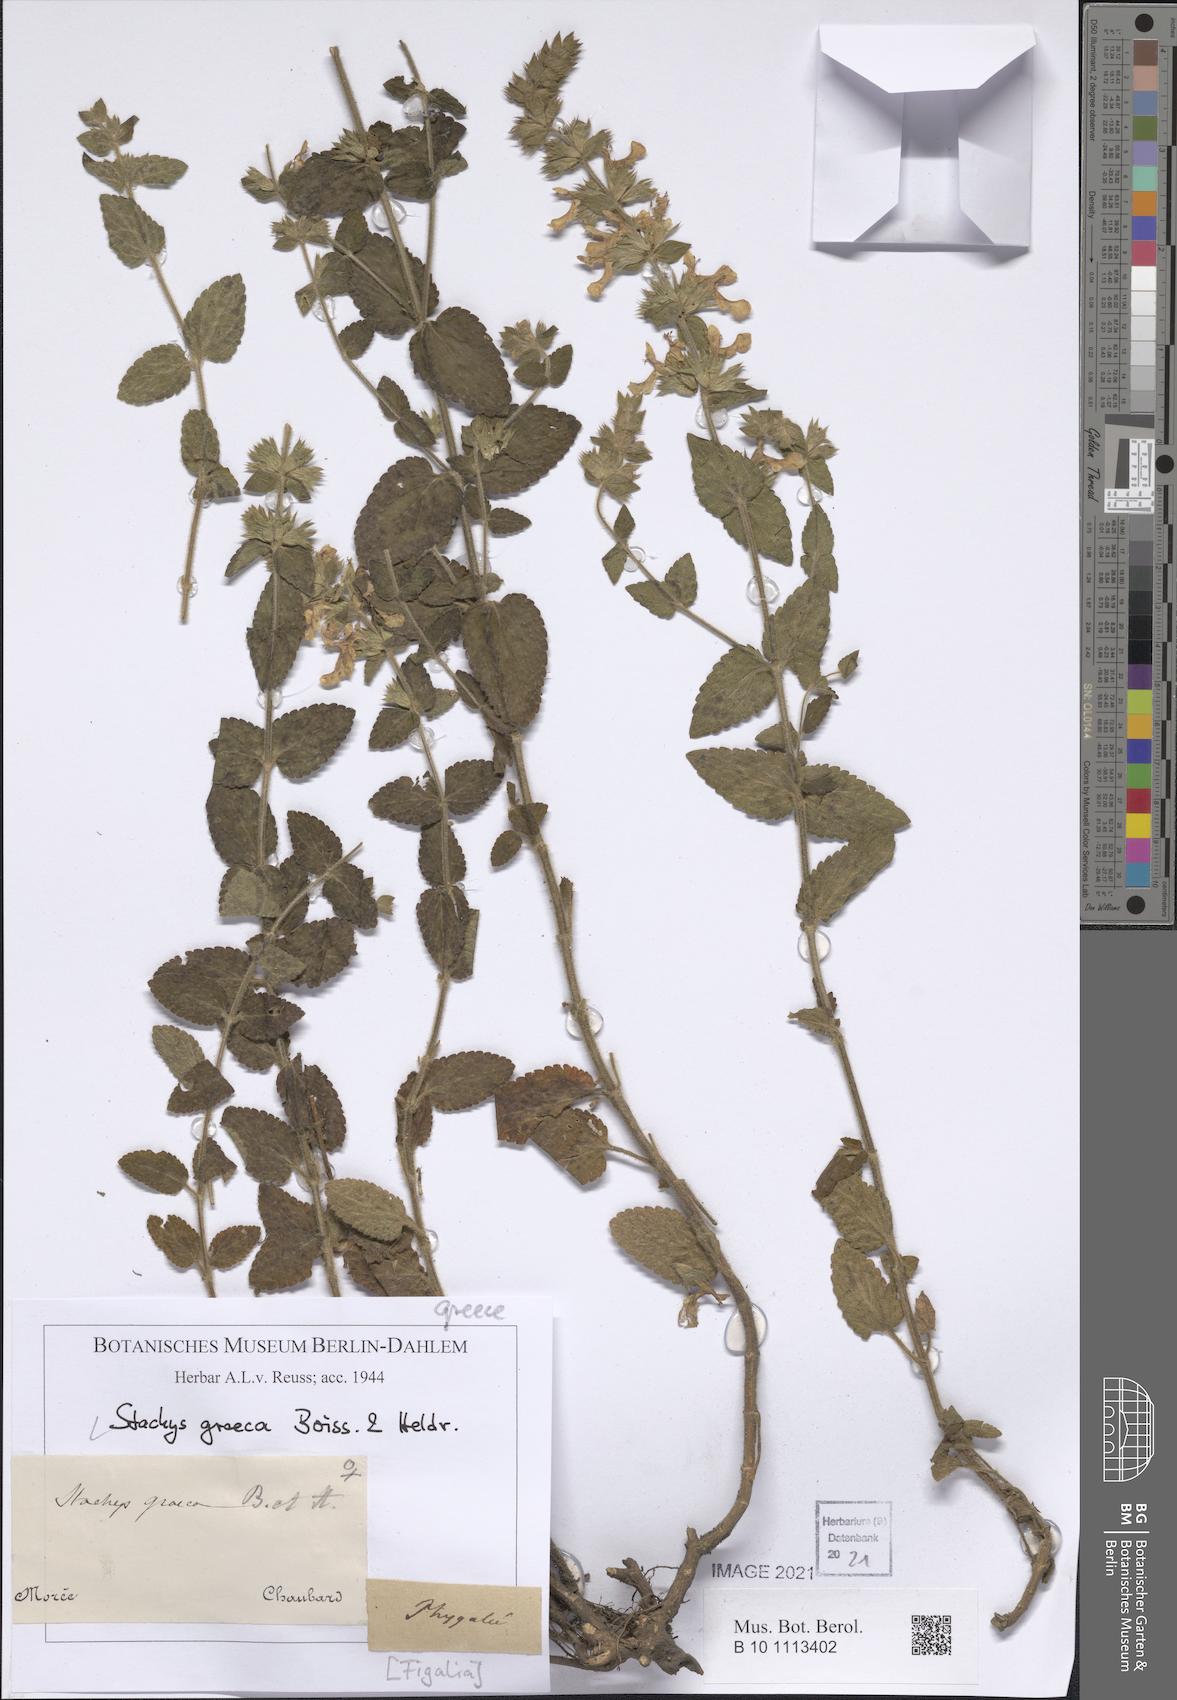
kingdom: Plantae
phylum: Tracheophyta
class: Magnoliopsida
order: Lamiales
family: Lamiaceae
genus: Stachys
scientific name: Stachys graeca
